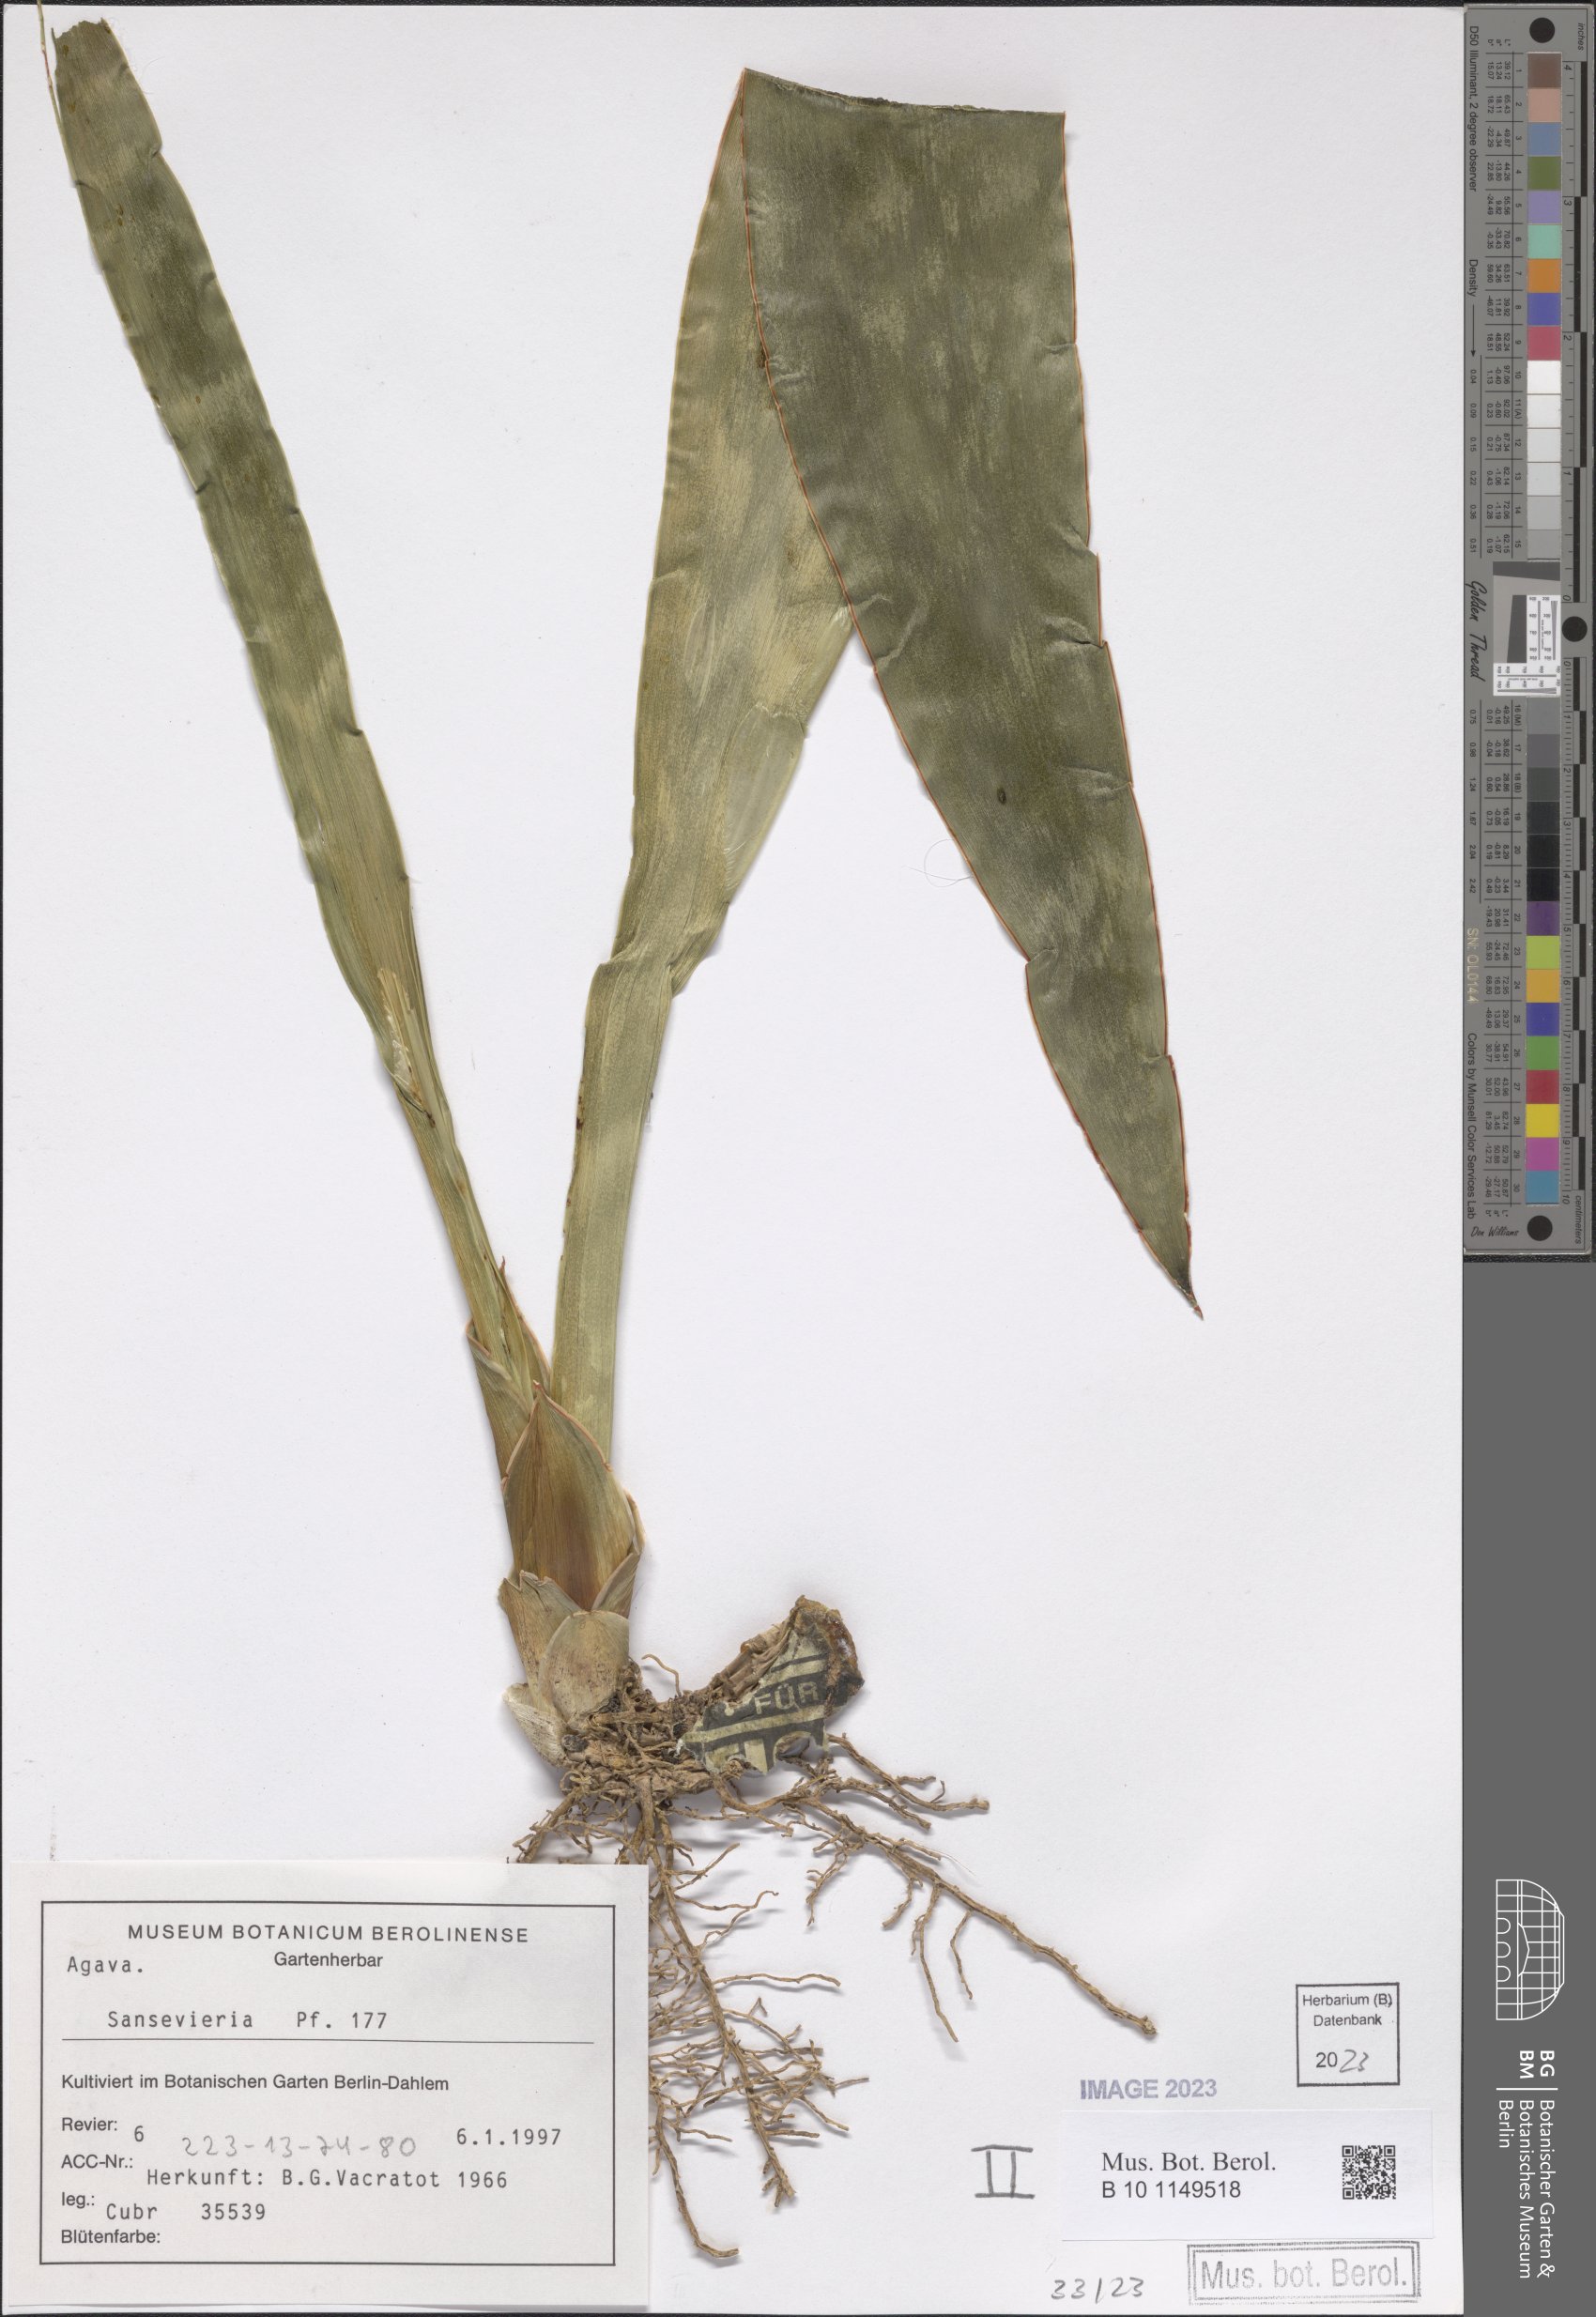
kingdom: Plantae
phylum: Tracheophyta
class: Liliopsida
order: Asparagales
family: Asparagaceae
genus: Dracaena
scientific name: Dracaena zebra
